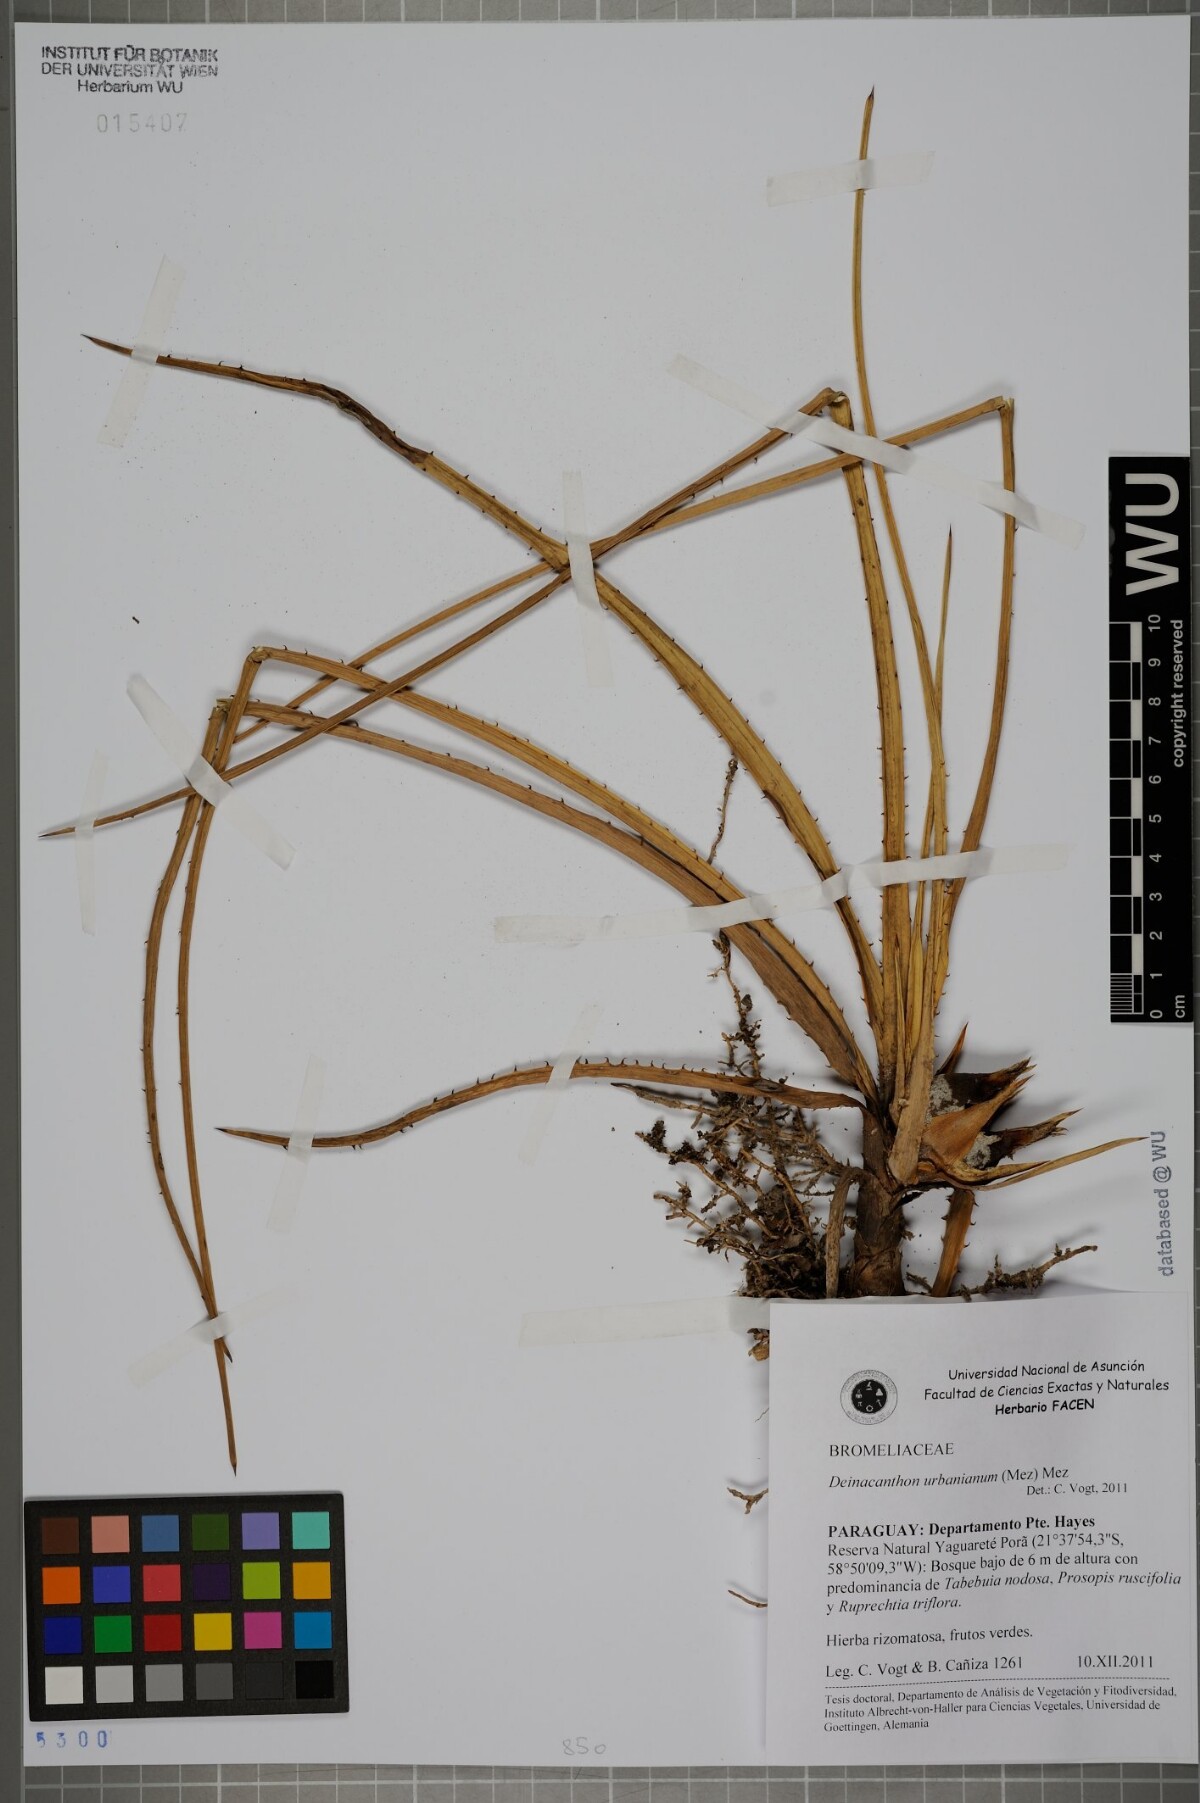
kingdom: Plantae
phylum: Tracheophyta
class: Liliopsida
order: Poales
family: Bromeliaceae
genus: Deinacanthon
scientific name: Deinacanthon urbanianum
